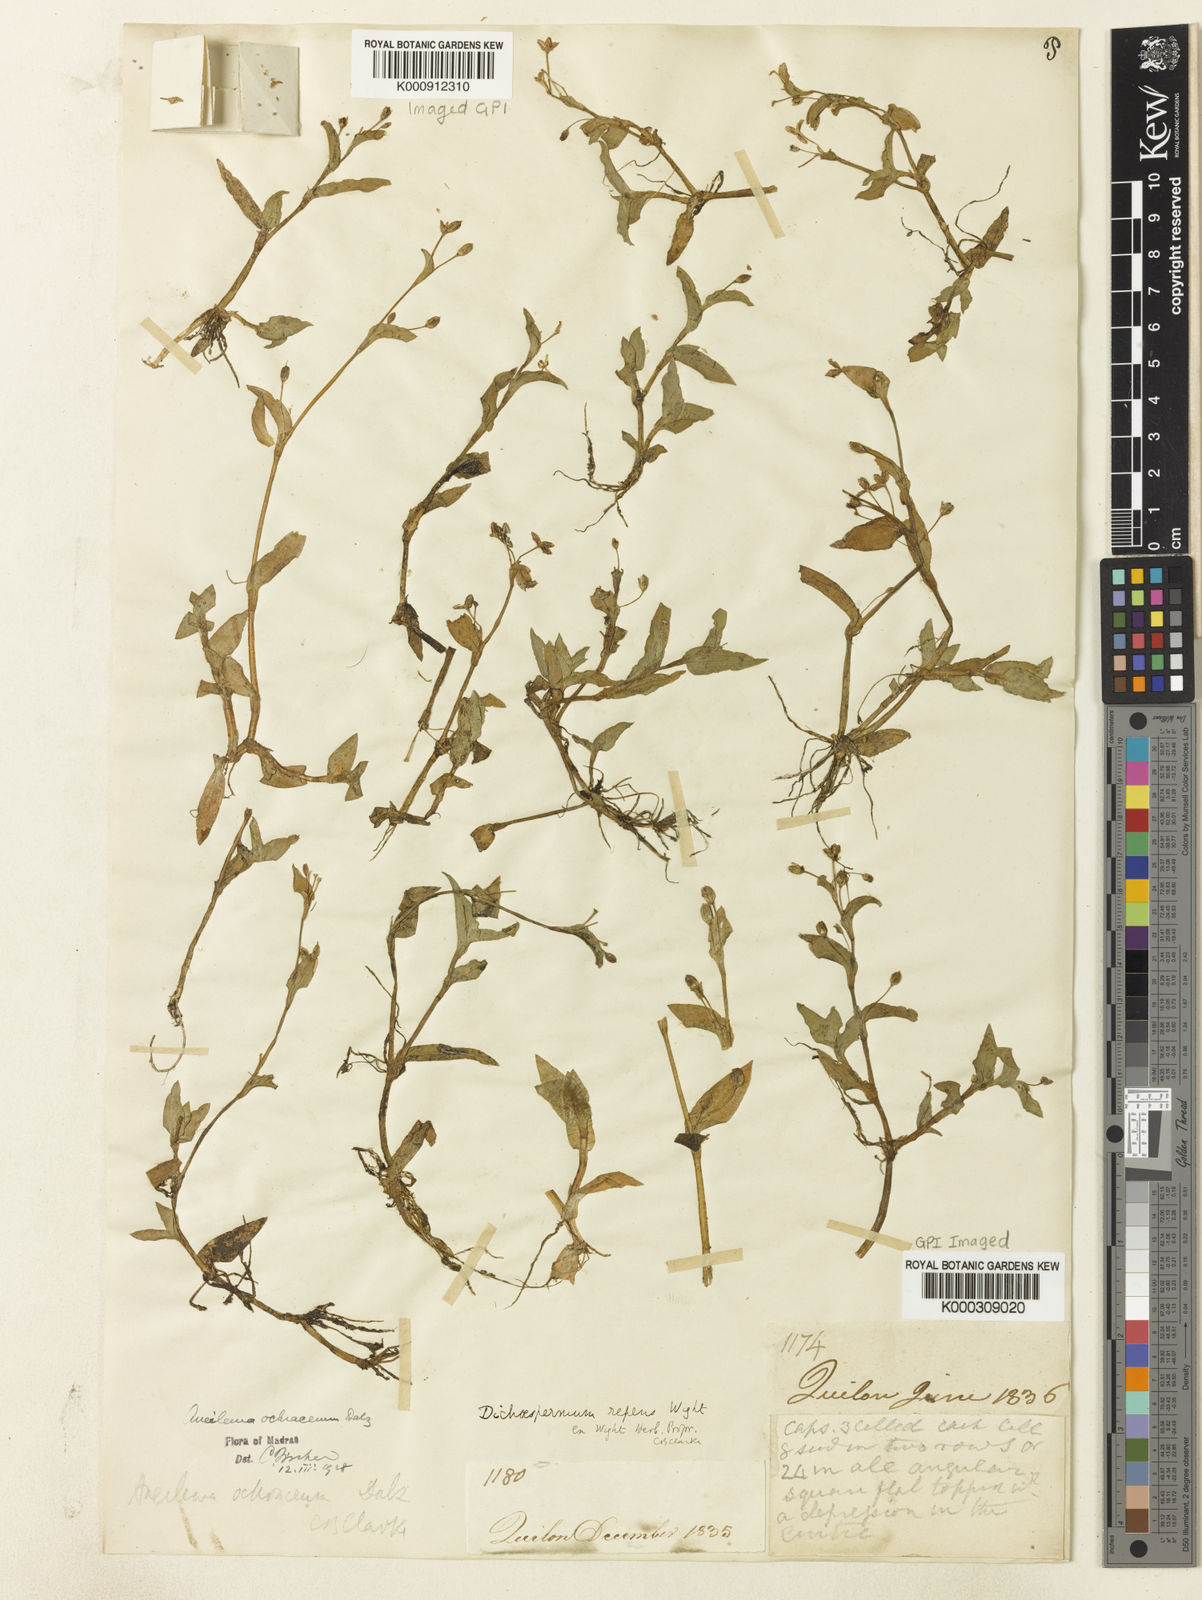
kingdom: Plantae
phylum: Tracheophyta
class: Liliopsida
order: Commelinales
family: Commelinaceae
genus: Murdannia
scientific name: Murdannia blumei
